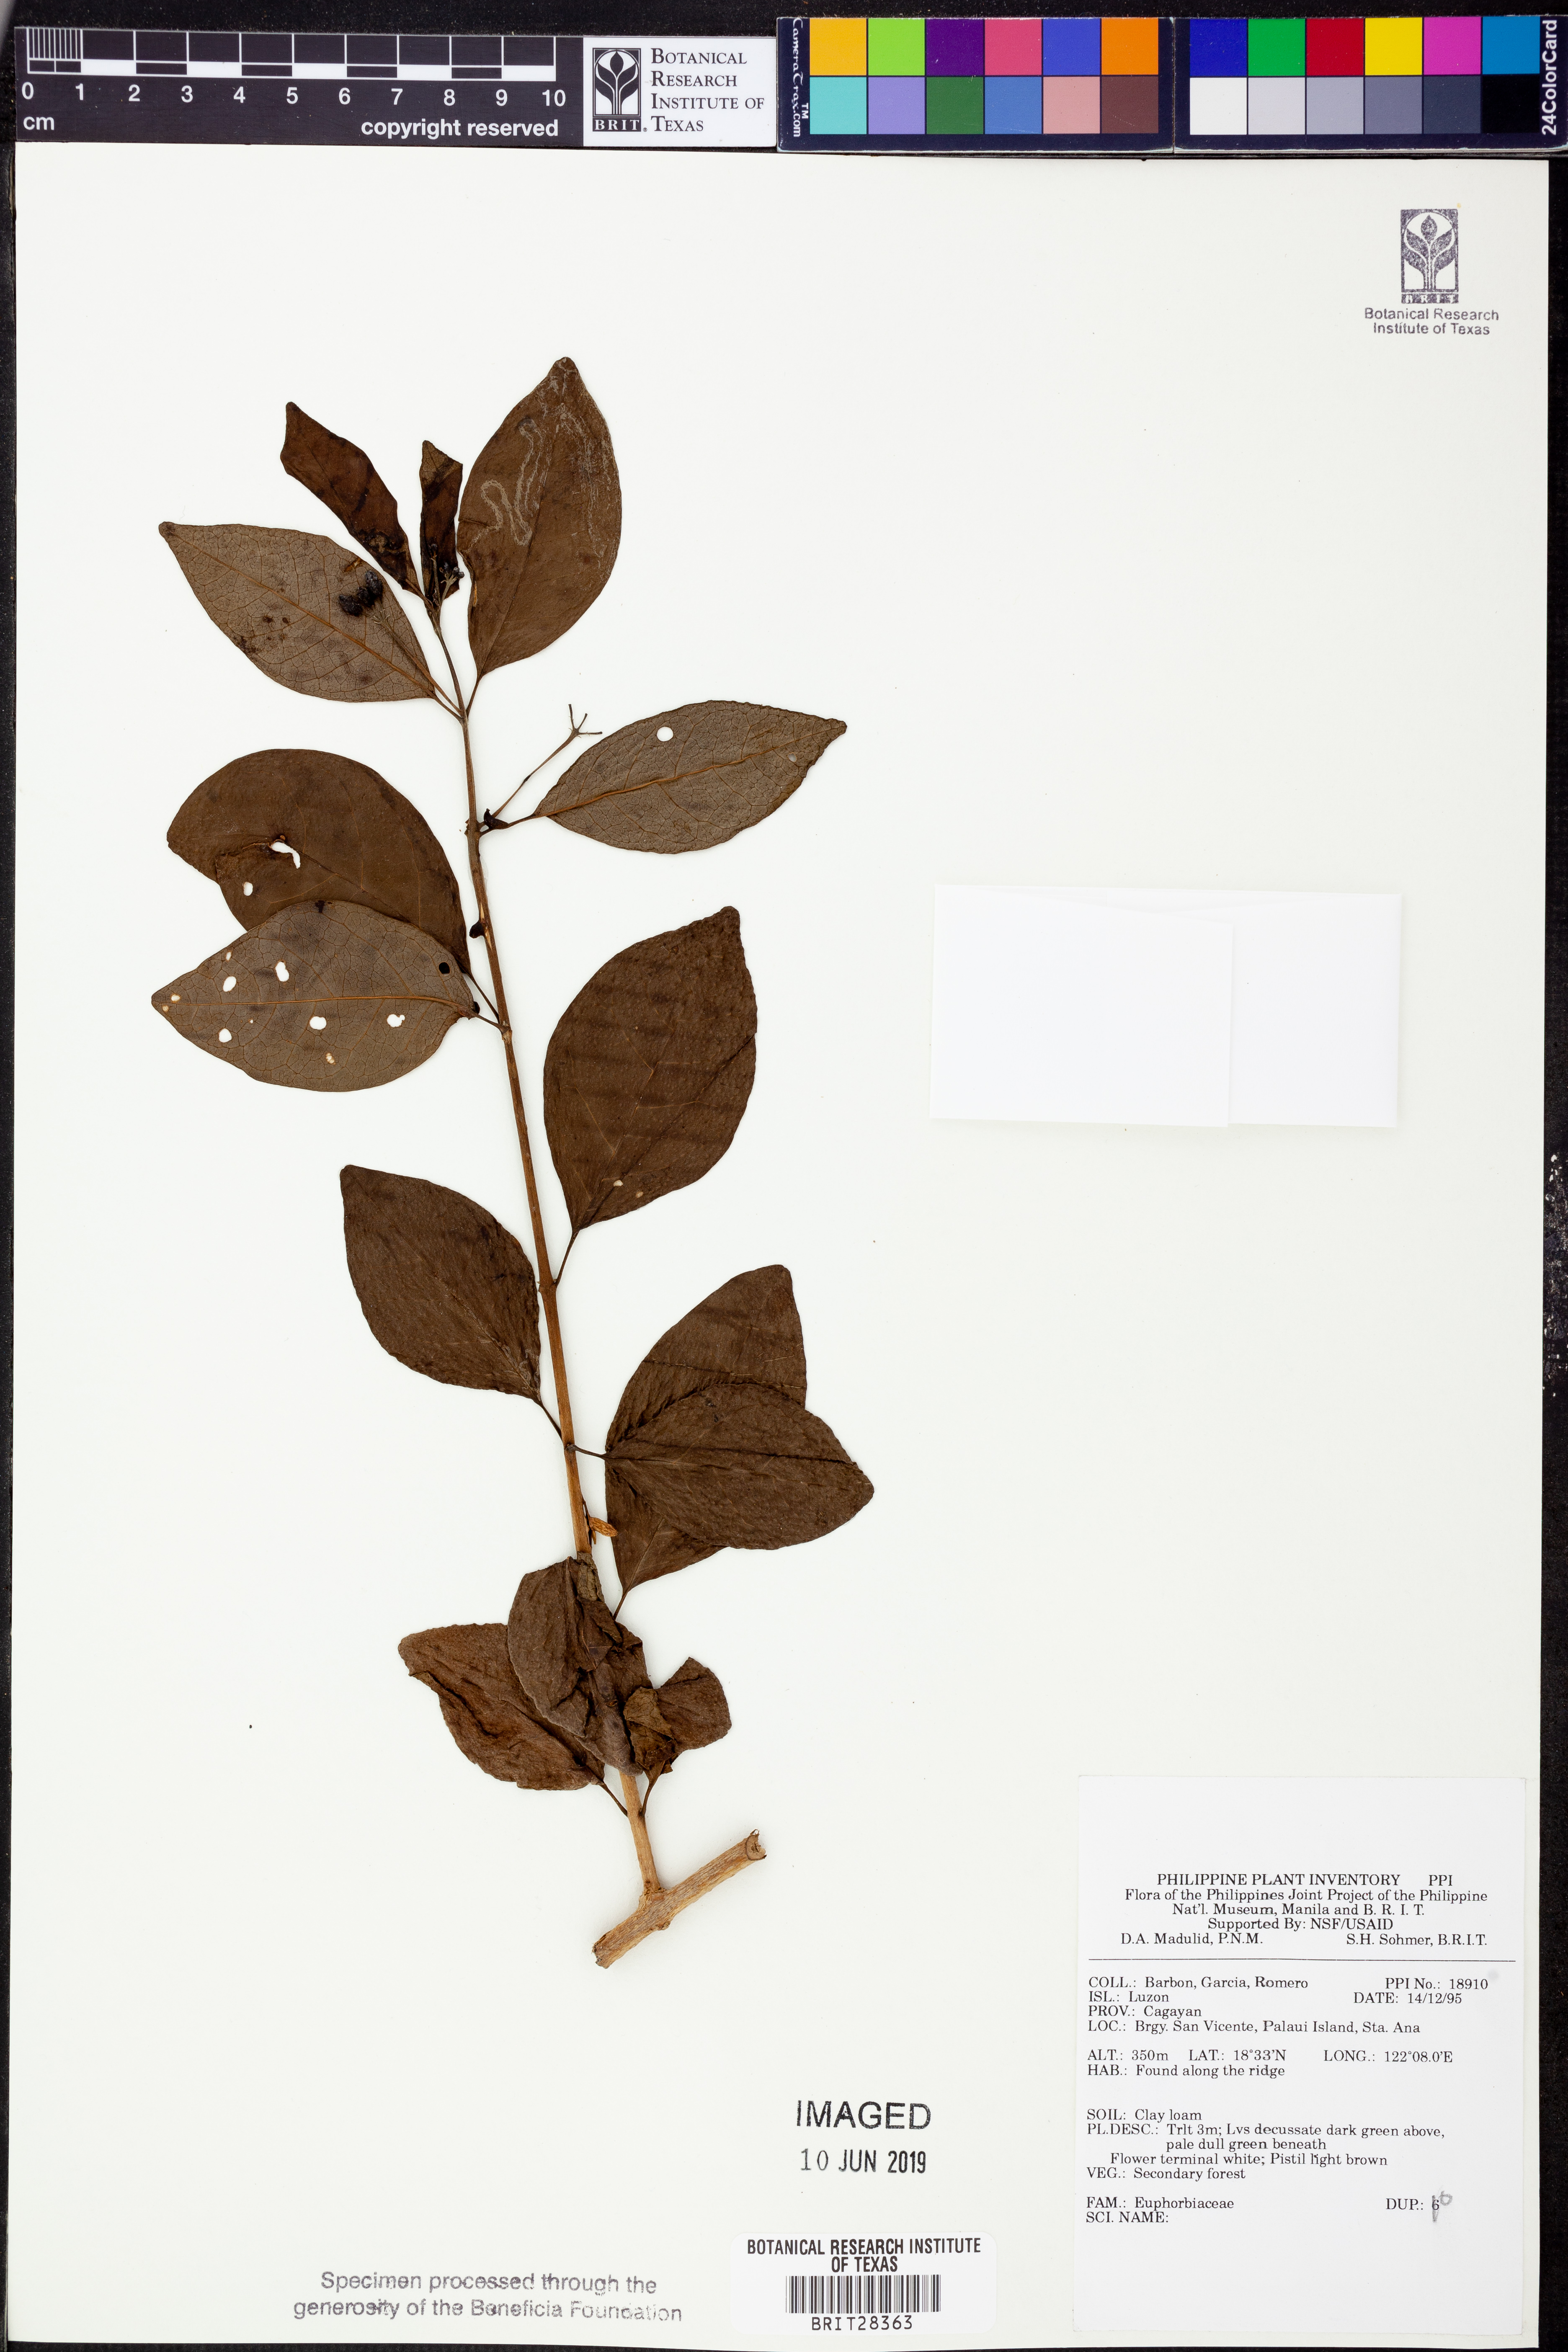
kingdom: Plantae
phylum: Tracheophyta
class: Magnoliopsida
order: Malpighiales
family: Euphorbiaceae
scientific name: Euphorbiaceae
